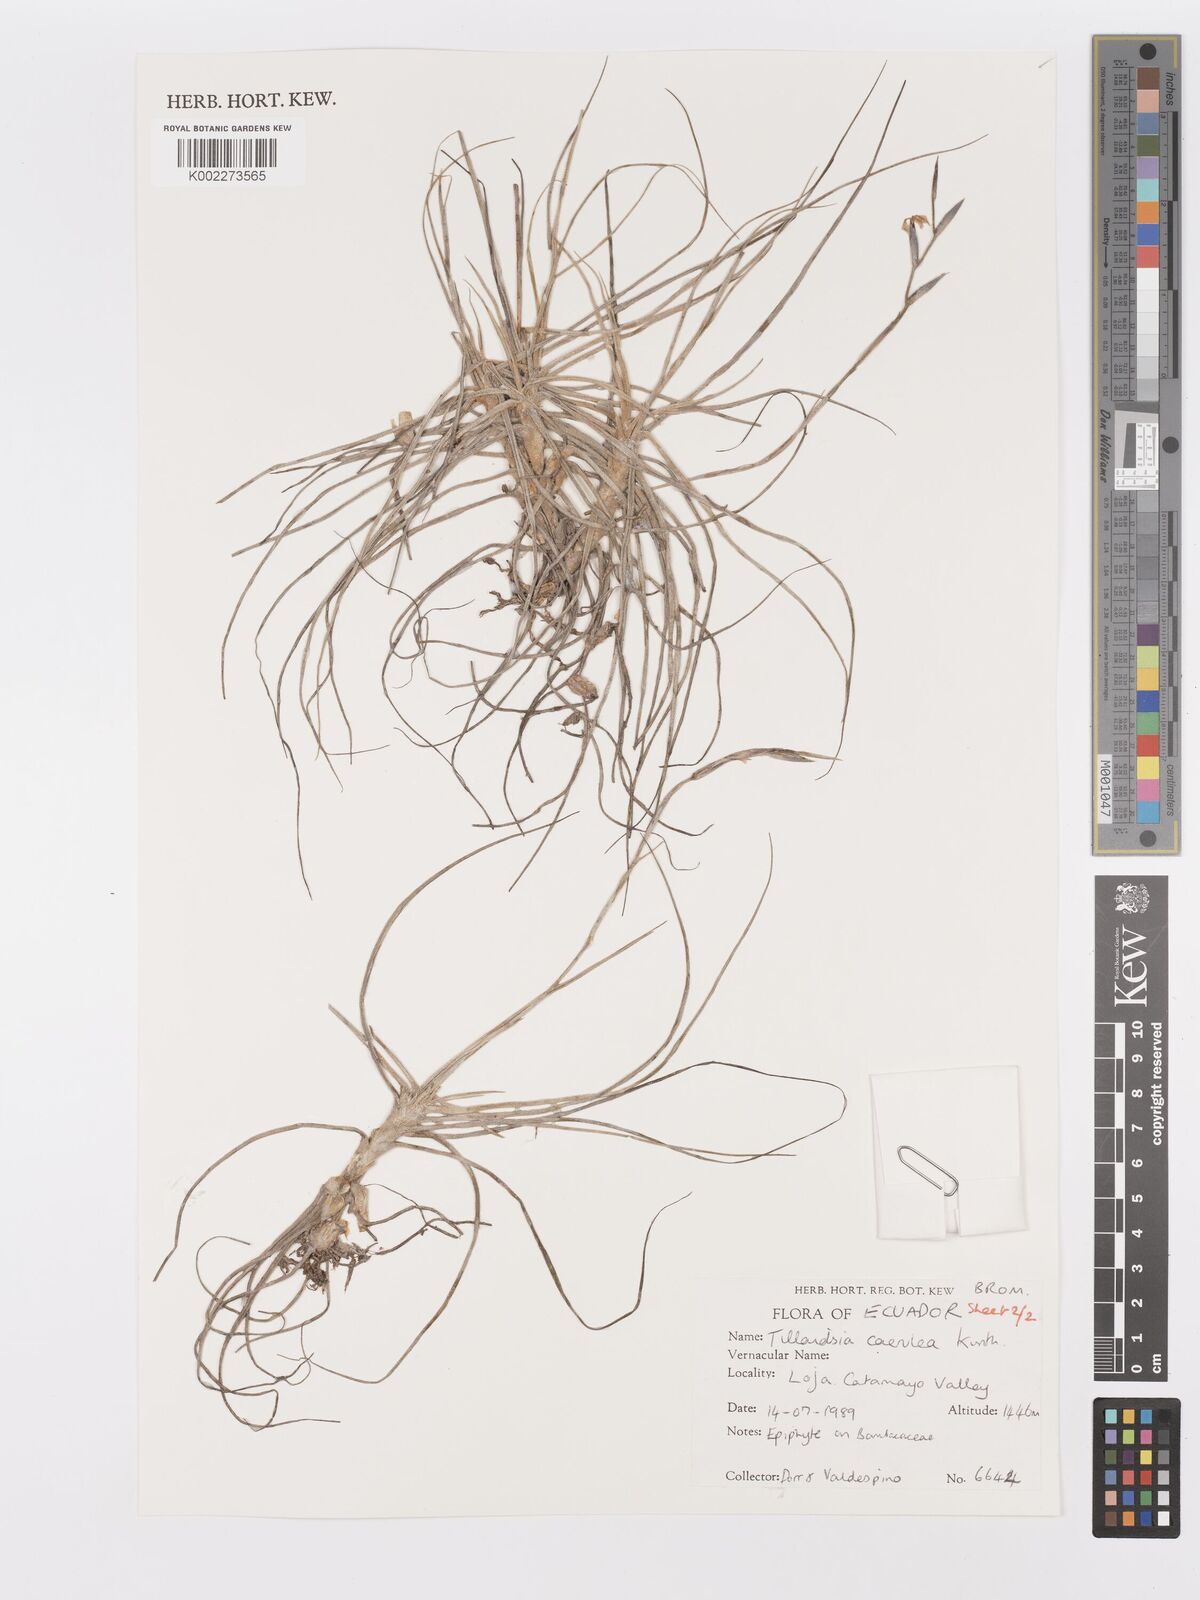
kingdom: Plantae
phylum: Tracheophyta
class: Liliopsida
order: Poales
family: Bromeliaceae
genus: Tillandsia
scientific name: Tillandsia caerulea
